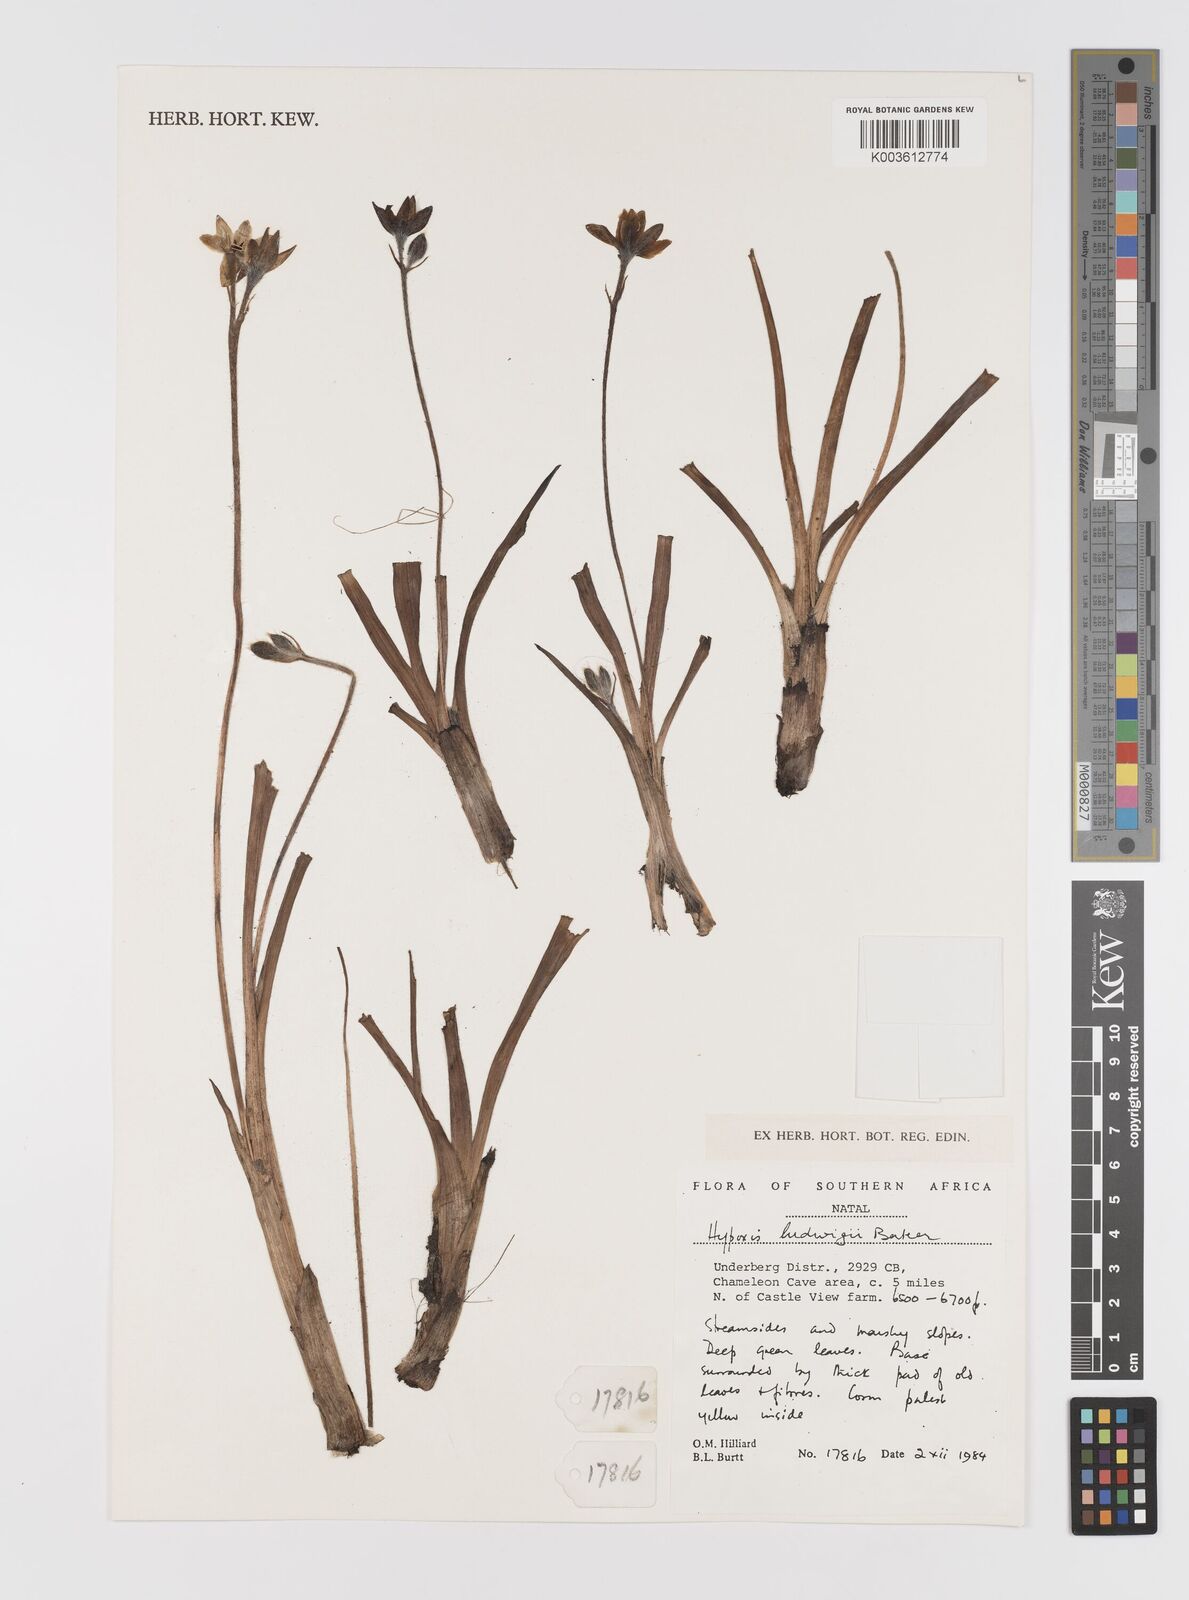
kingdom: Plantae
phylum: Tracheophyta
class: Liliopsida
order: Asparagales
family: Hypoxidaceae
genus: Hypoxis
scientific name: Hypoxis ludwigii
